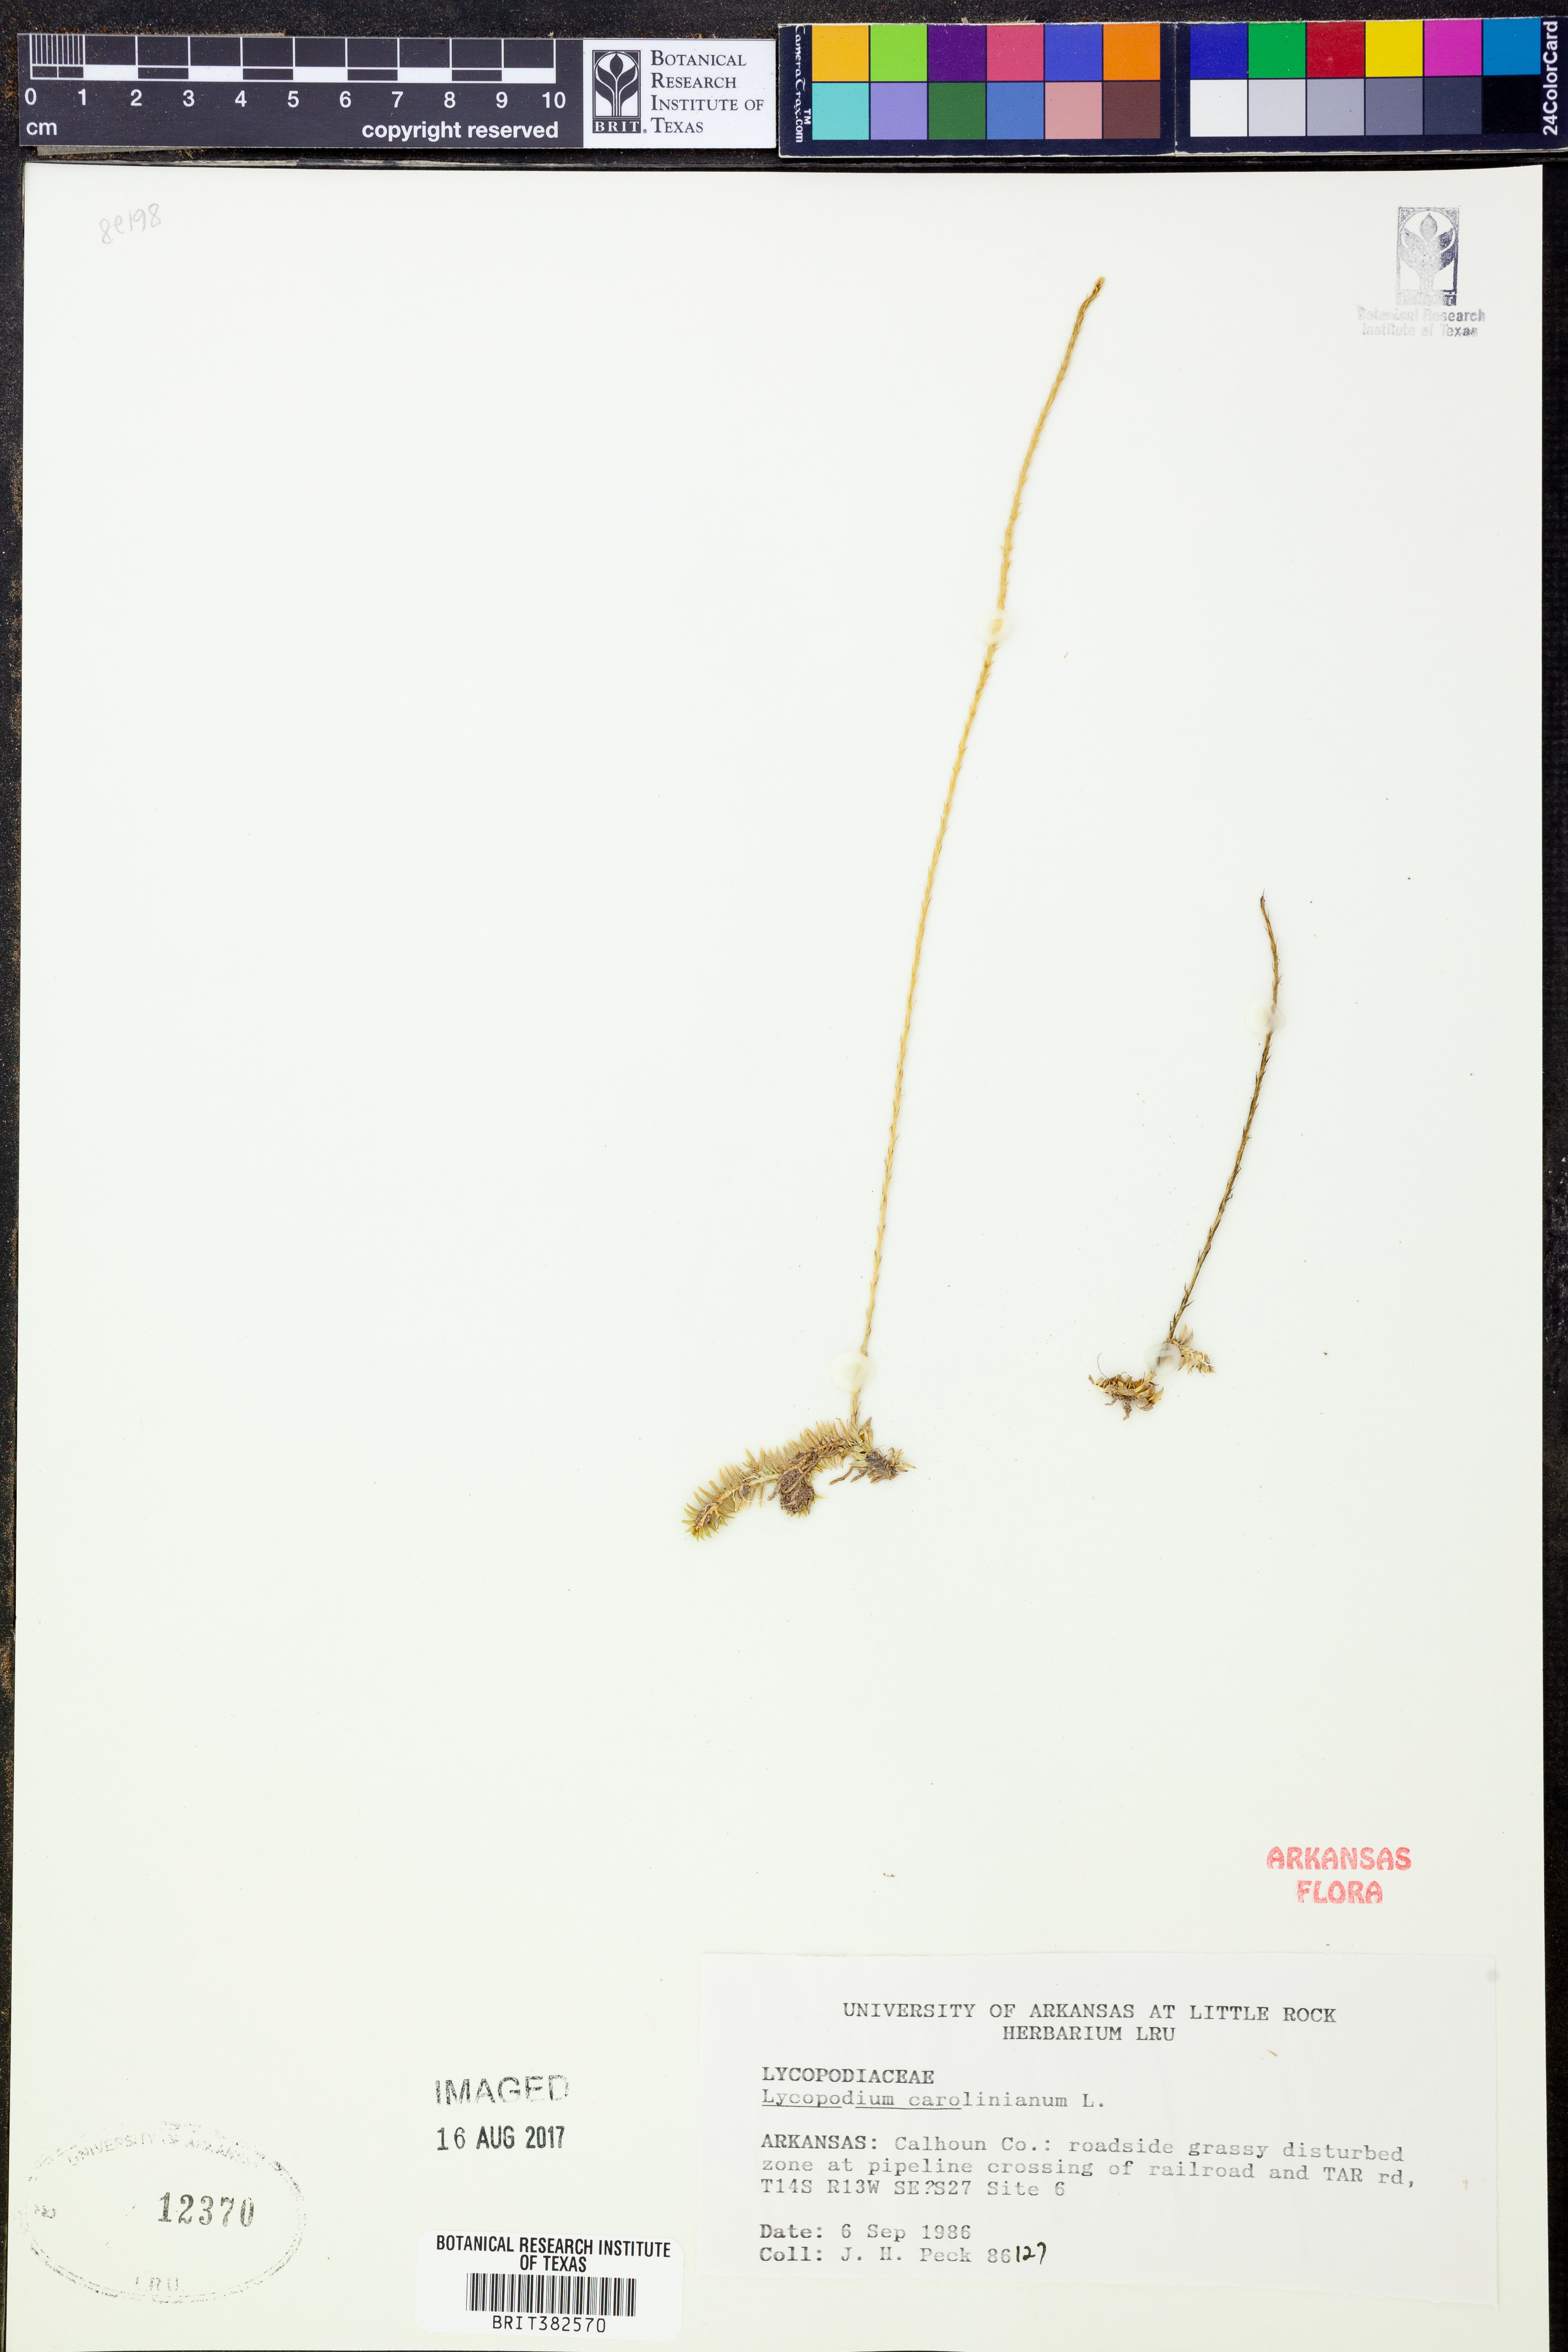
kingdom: Plantae
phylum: Tracheophyta
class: Lycopodiopsida
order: Lycopodiales
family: Lycopodiaceae
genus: Pseudolycopodiella
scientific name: Pseudolycopodiella caroliniana
